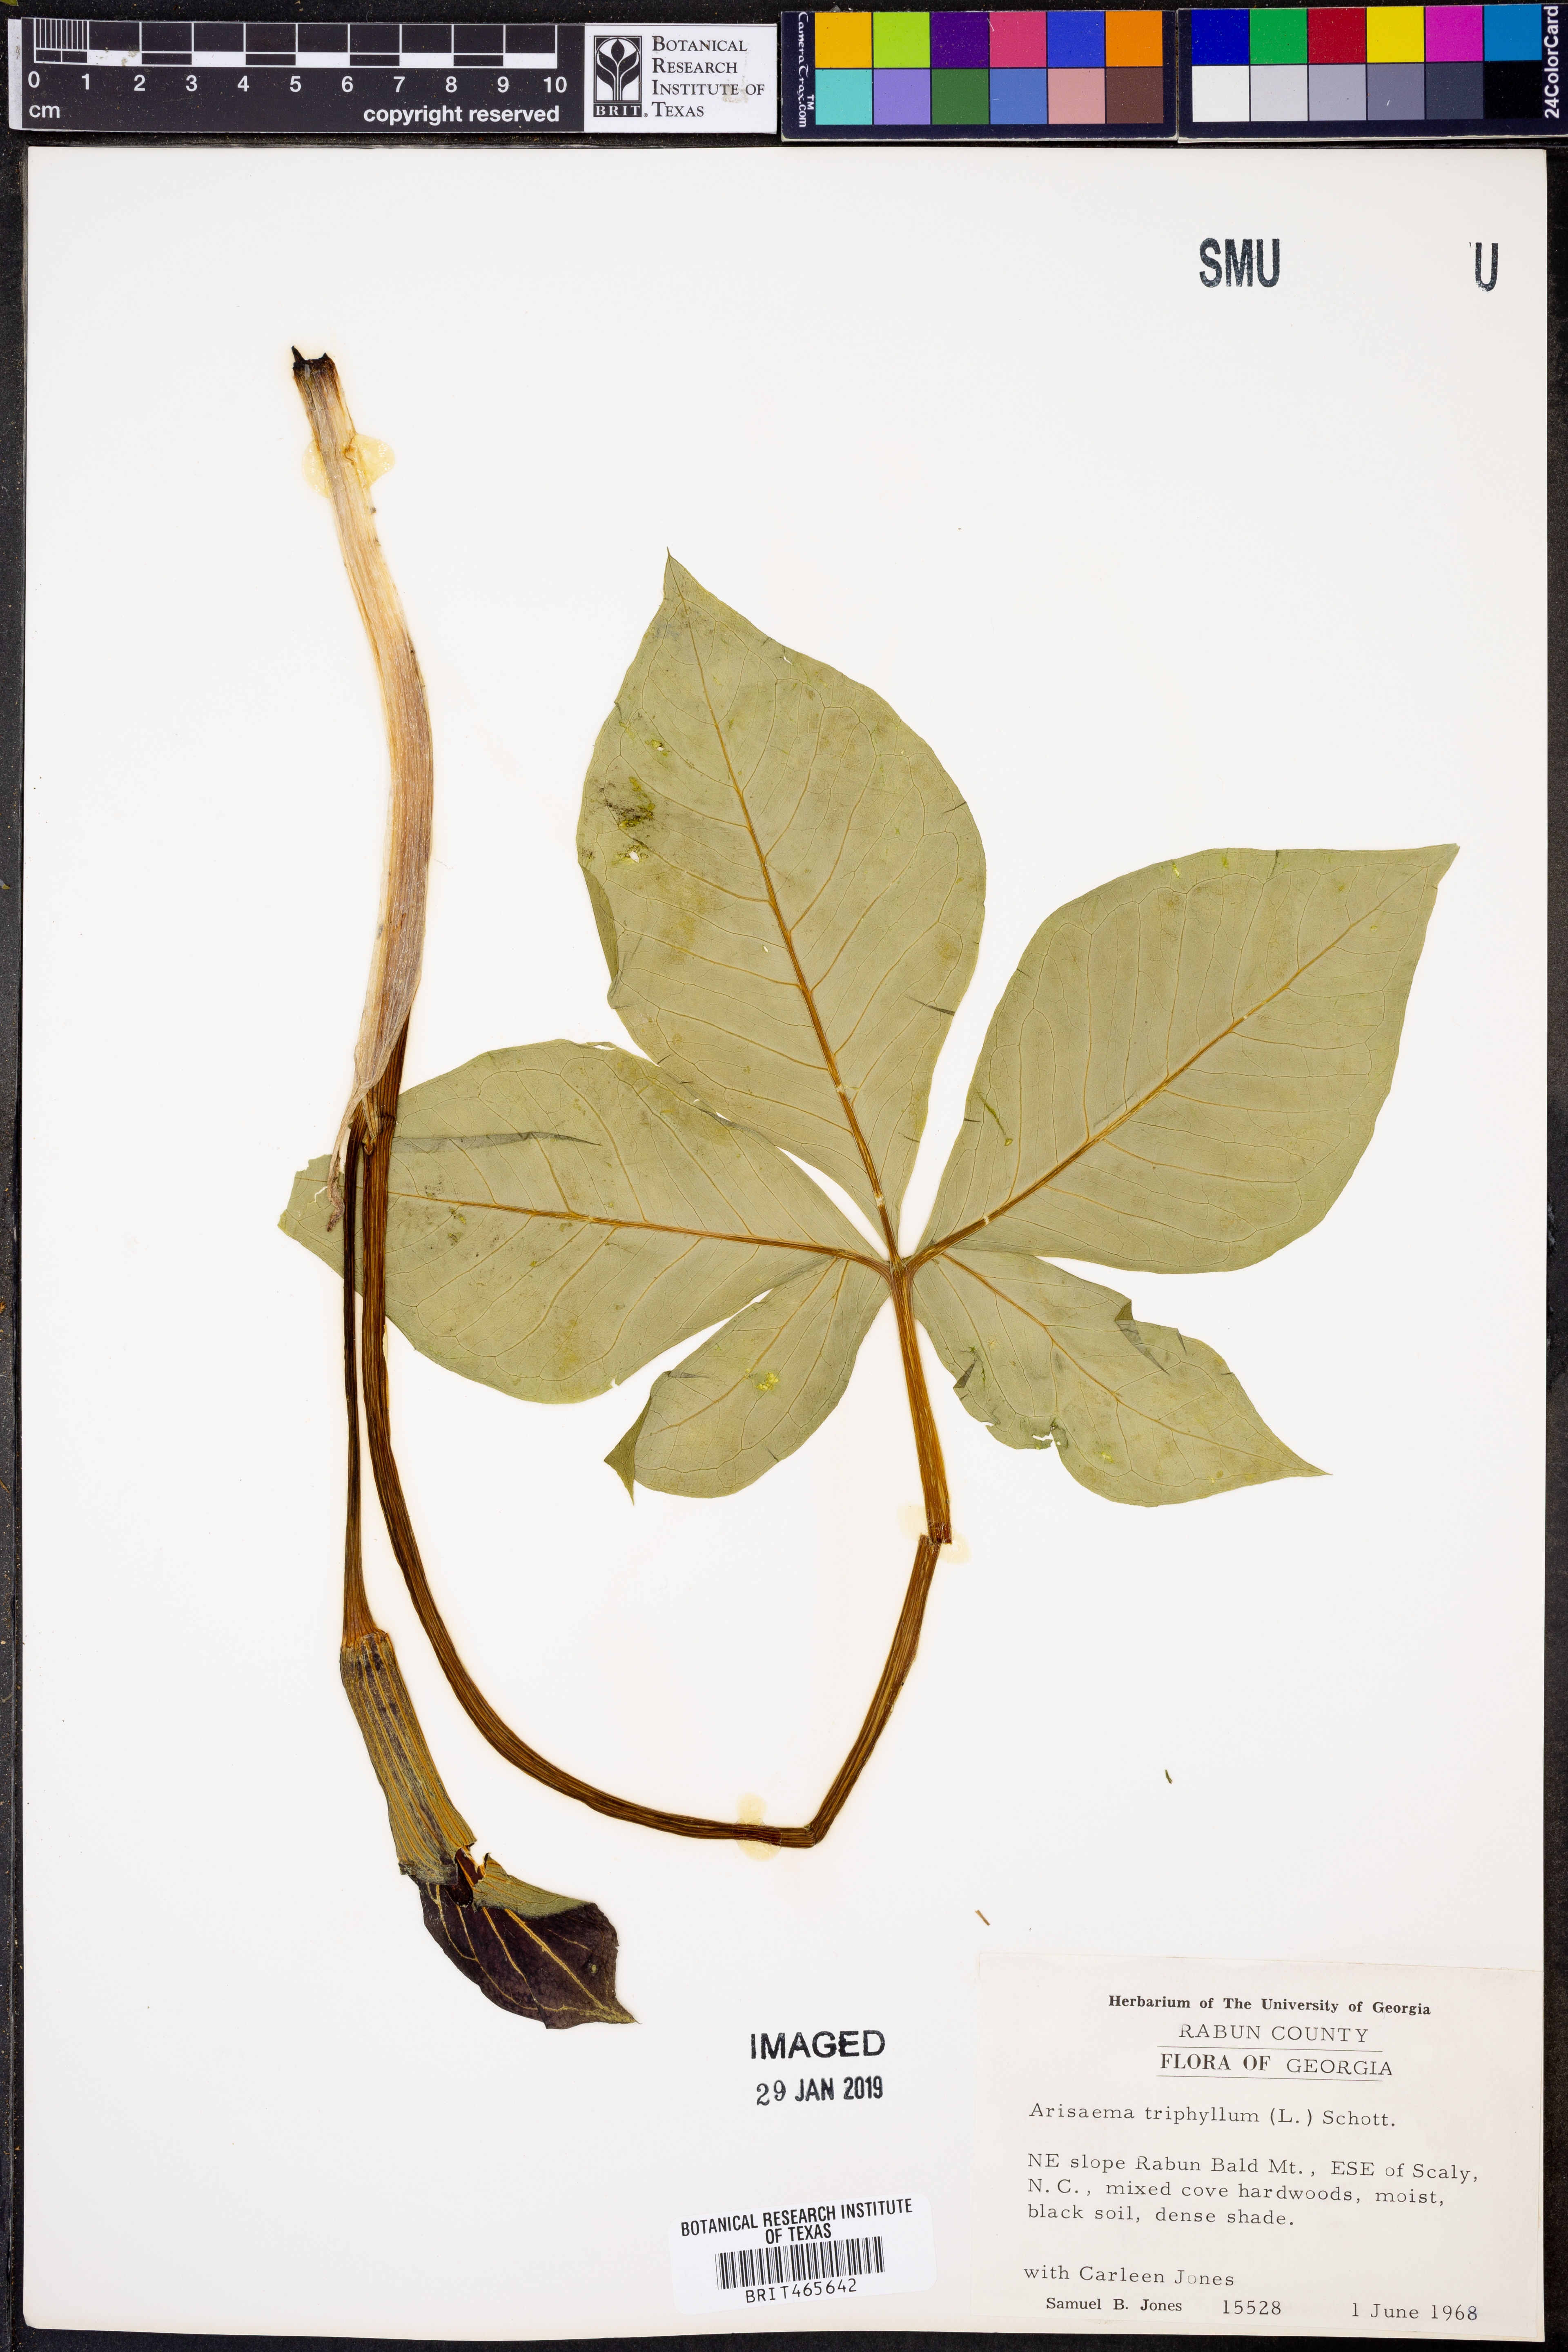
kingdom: Plantae
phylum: Tracheophyta
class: Liliopsida
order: Alismatales
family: Araceae
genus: Arisaema
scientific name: Arisaema triphyllum
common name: Jack-in-the-pulpit
